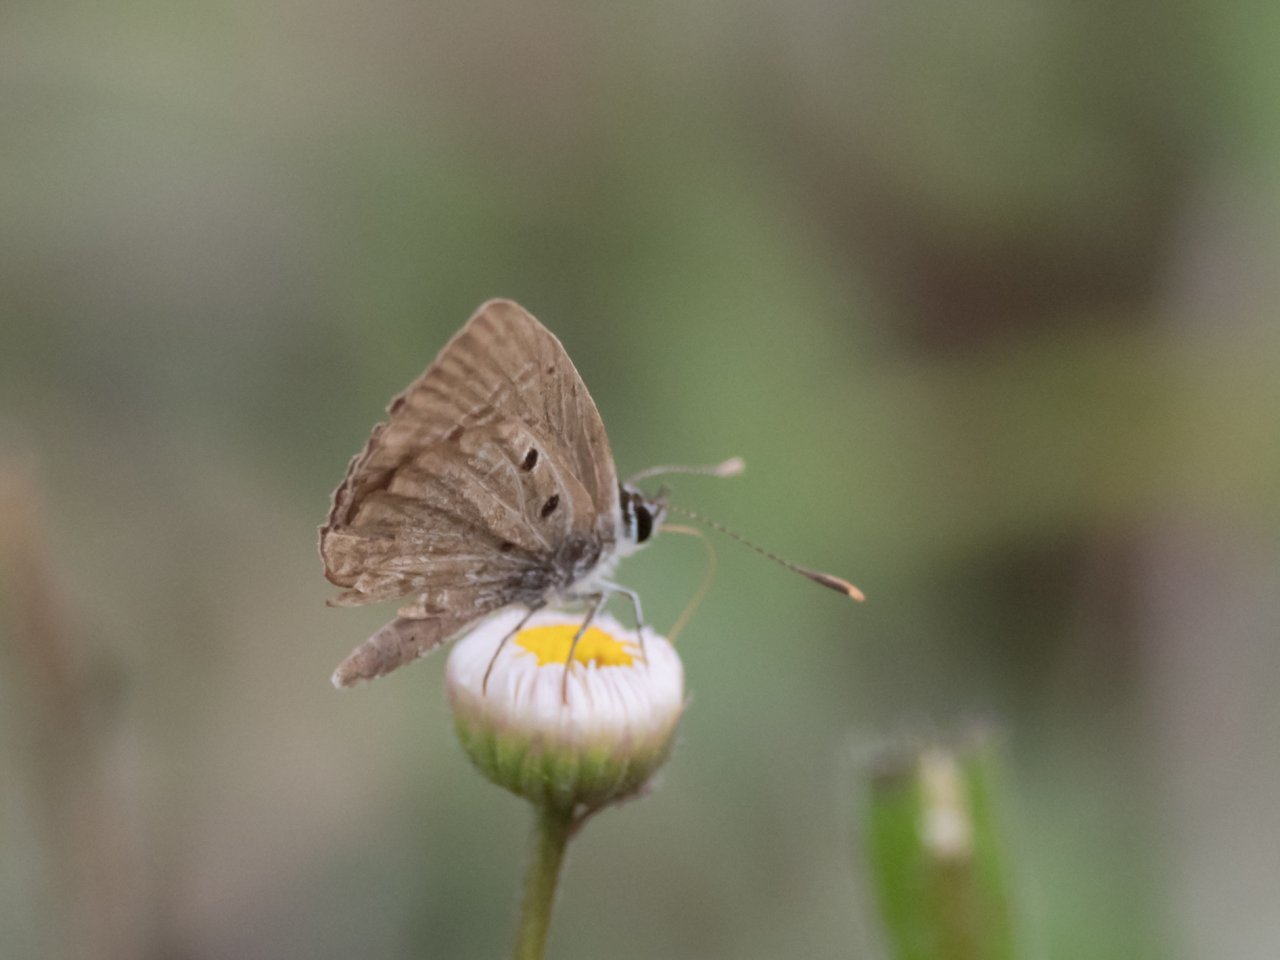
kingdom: Animalia
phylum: Arthropoda
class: Insecta
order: Lepidoptera
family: Lycaenidae
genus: Hemiargus
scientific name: Hemiargus ceraunus
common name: Ceraunus Blue
